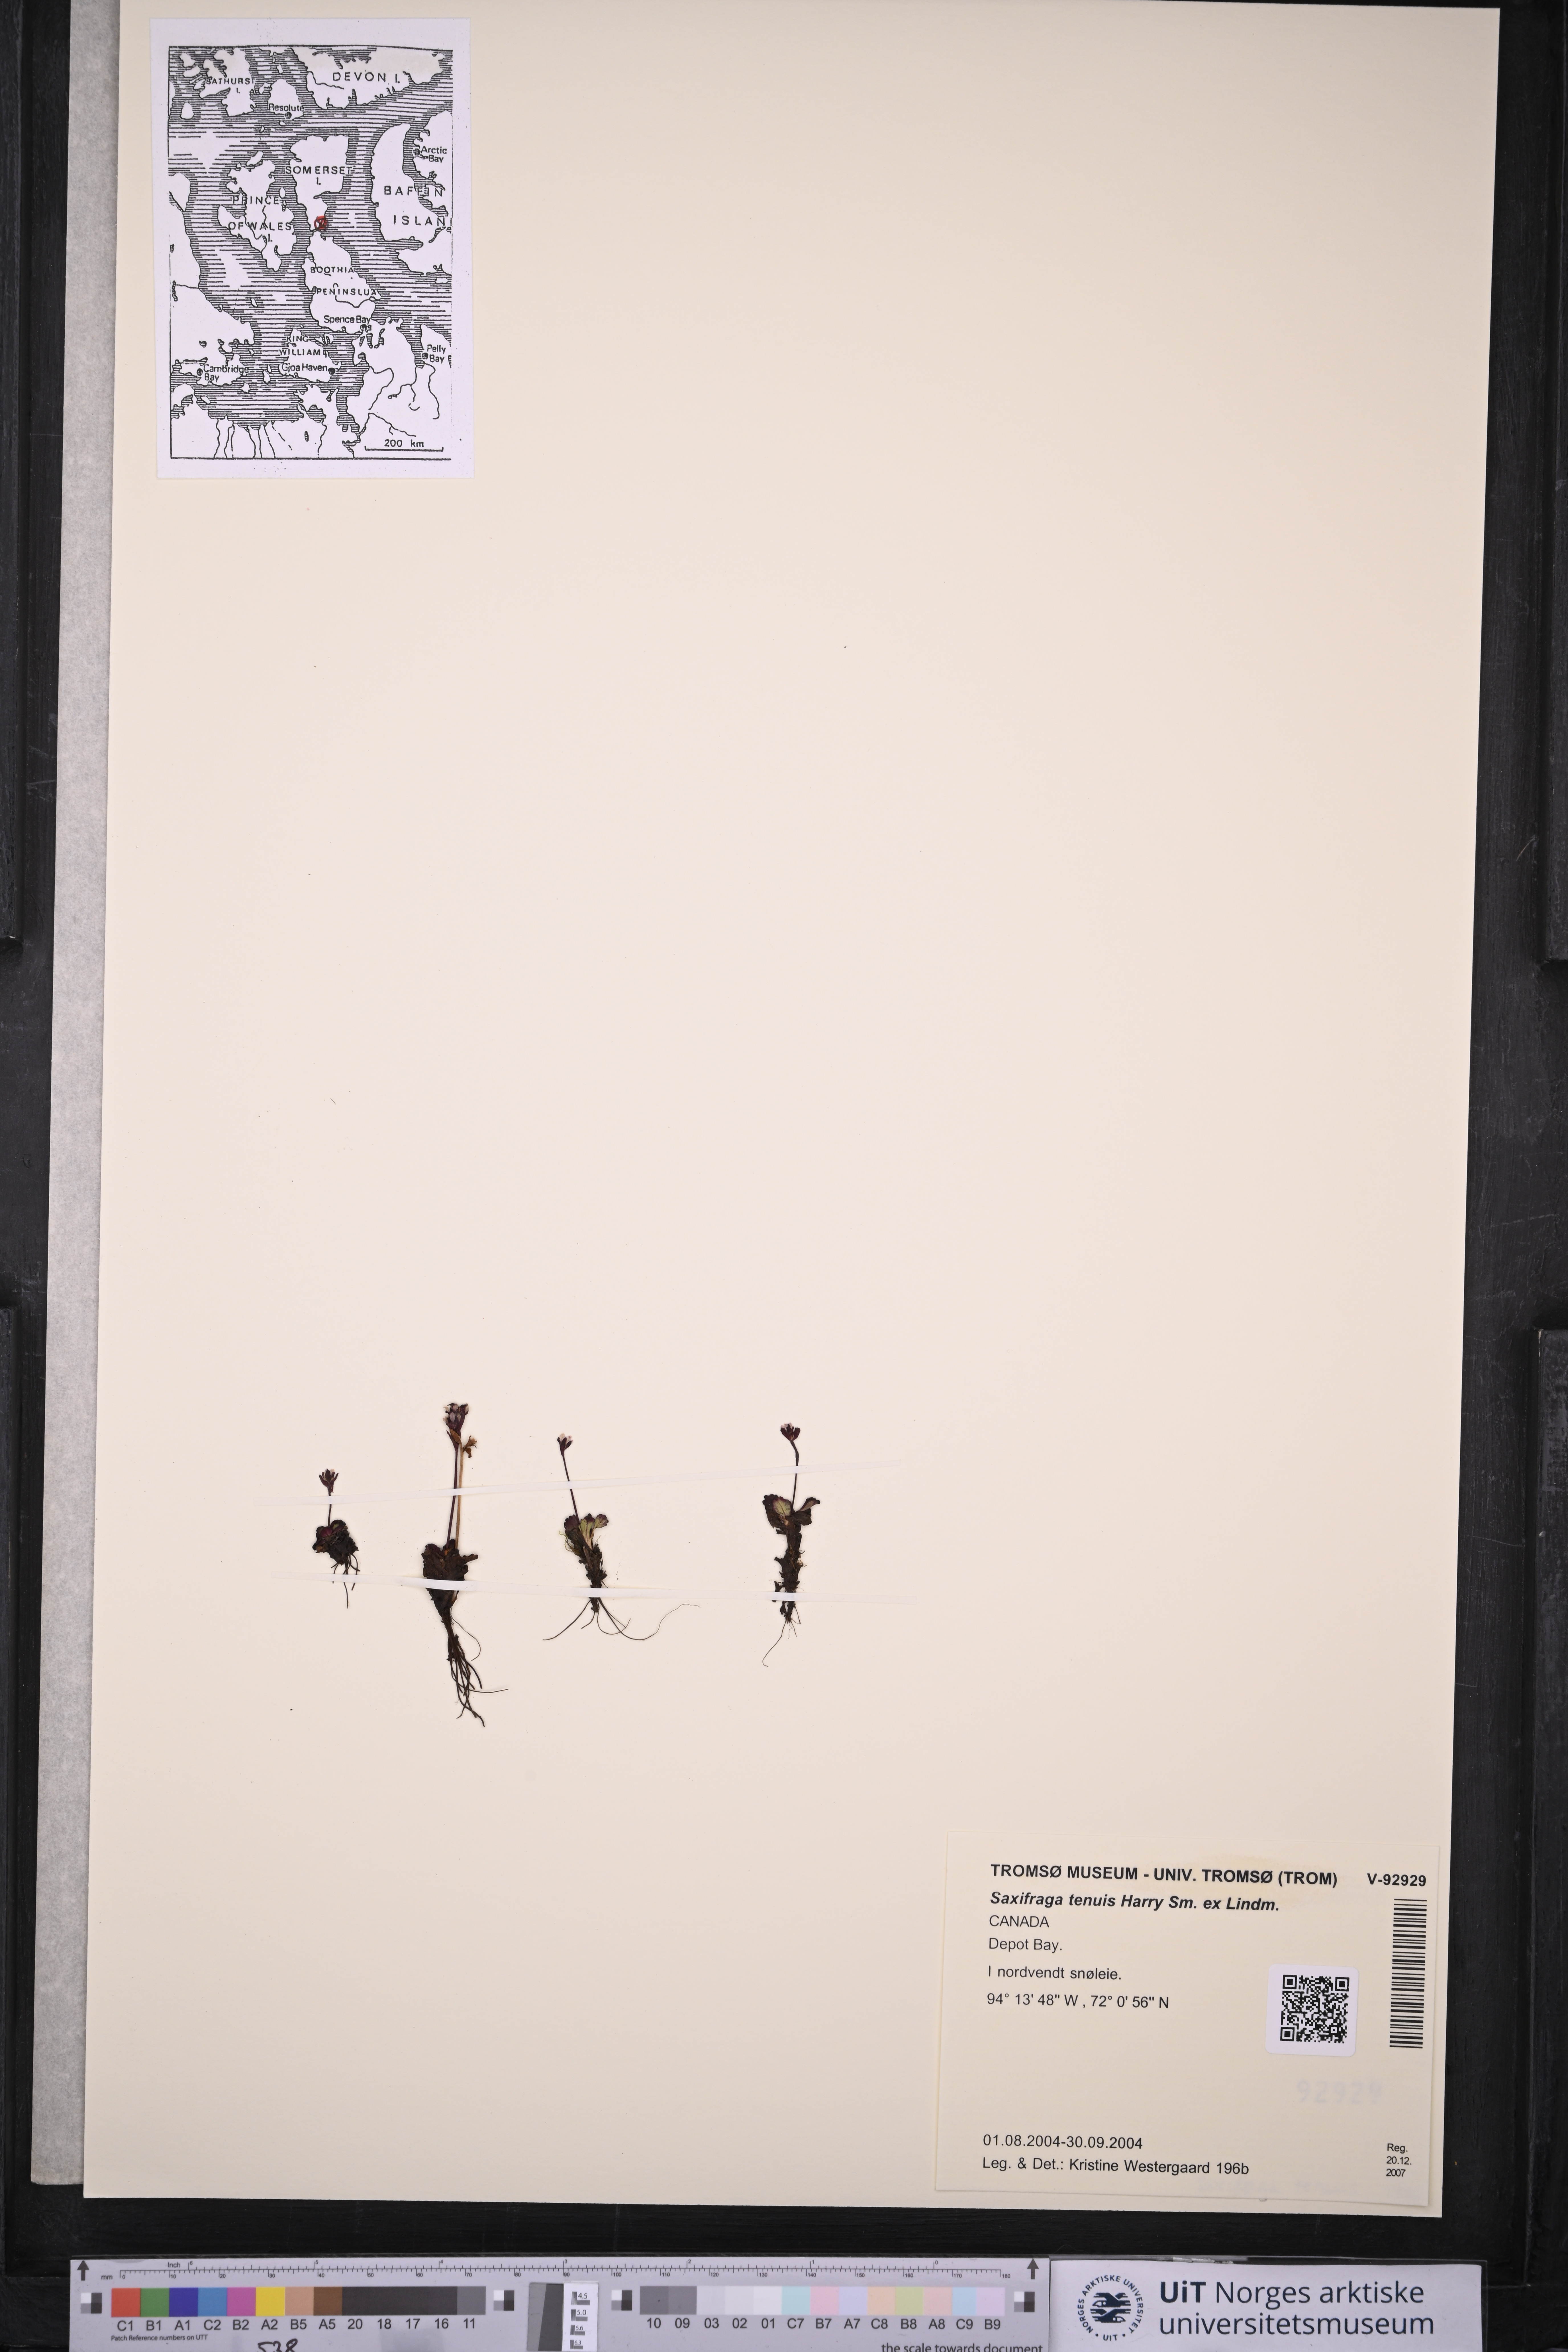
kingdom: Plantae
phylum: Tracheophyta
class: Magnoliopsida
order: Saxifragales
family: Saxifragaceae
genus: Micranthes
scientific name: Micranthes tenuis
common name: Ottertail pass saxifrage
